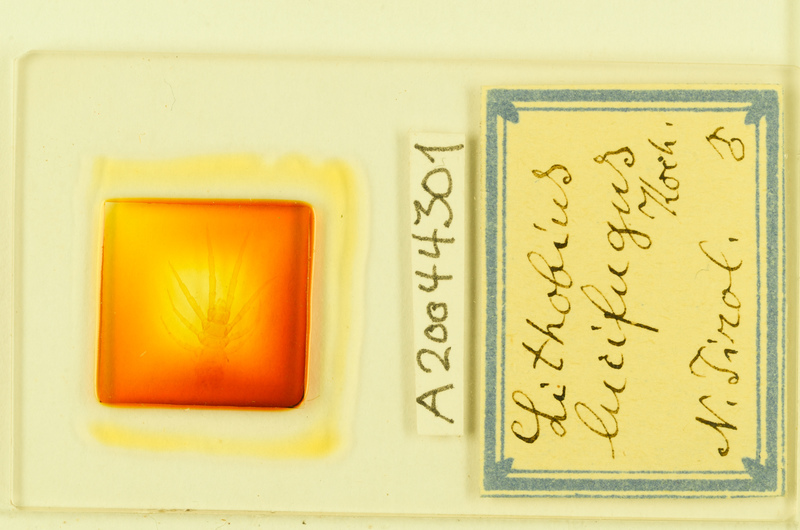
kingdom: Animalia
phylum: Arthropoda
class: Chilopoda
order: Lithobiomorpha
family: Lithobiidae
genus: Lithobius
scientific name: Lithobius lucifugus
